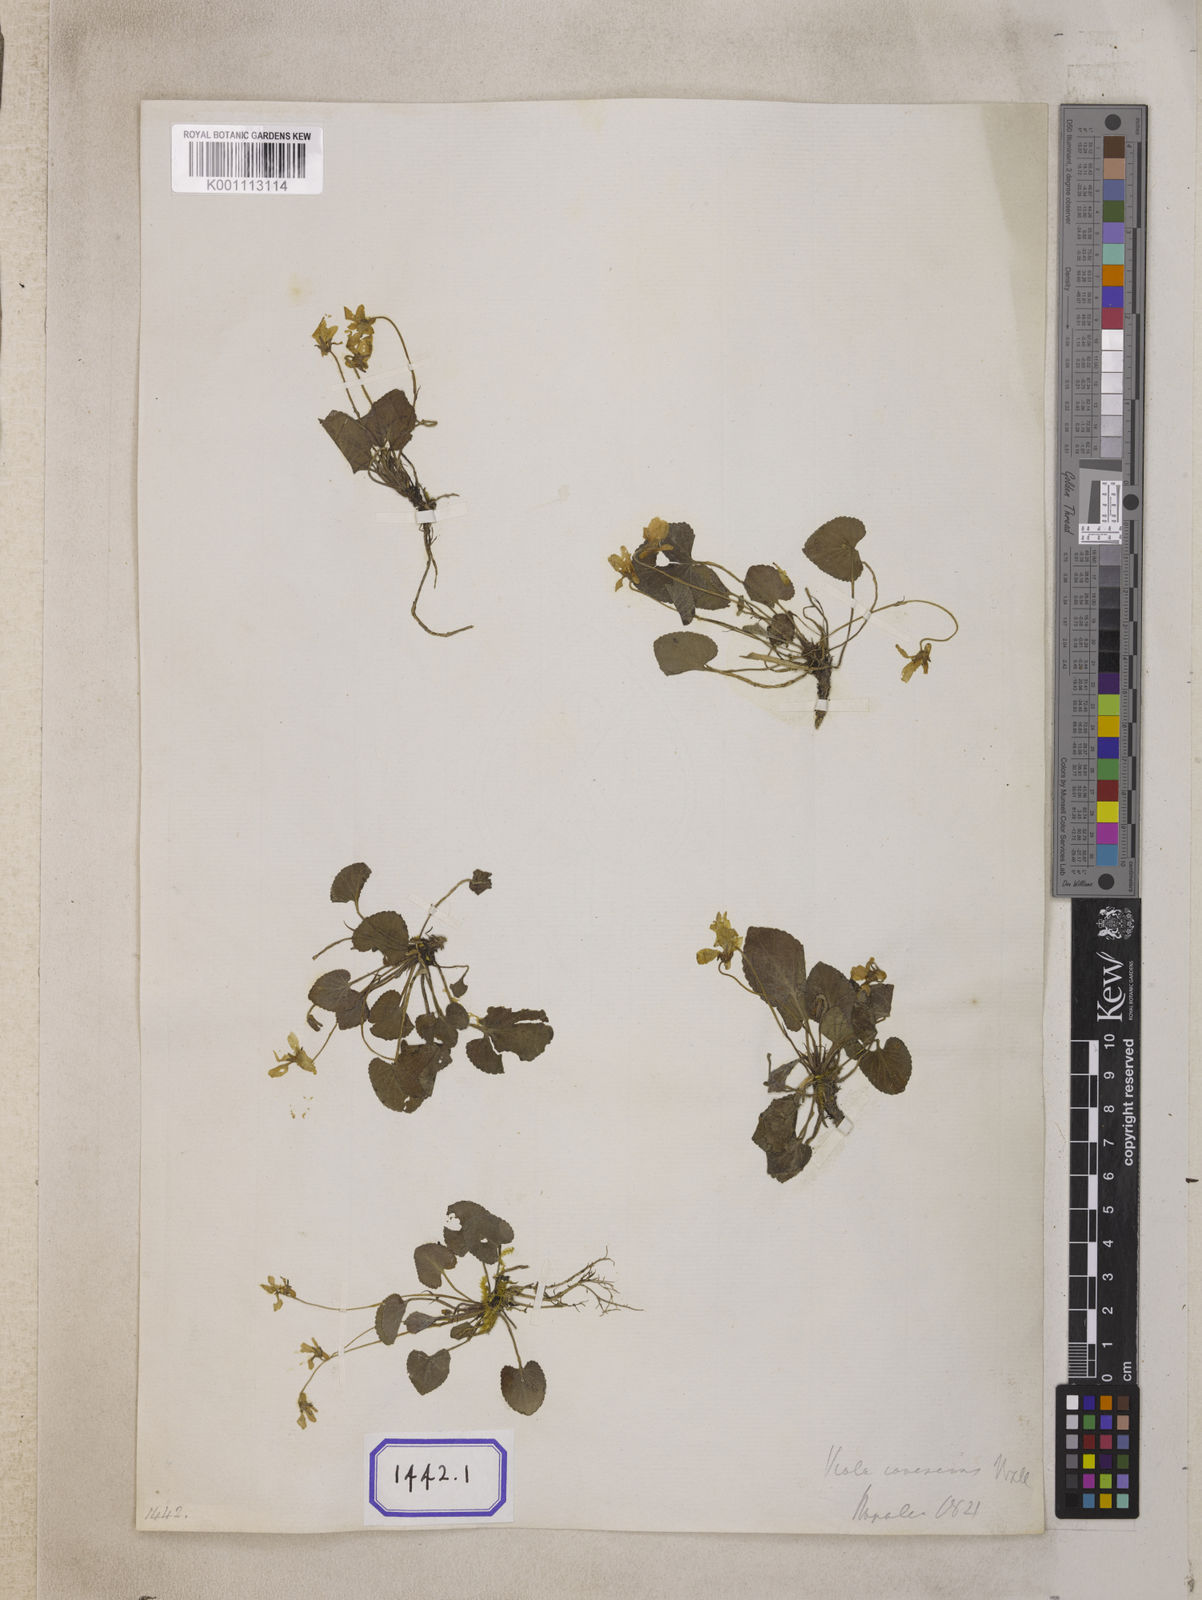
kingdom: Plantae
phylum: Tracheophyta
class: Magnoliopsida
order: Malpighiales
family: Violaceae
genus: Viola
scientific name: Viola wallichiana
